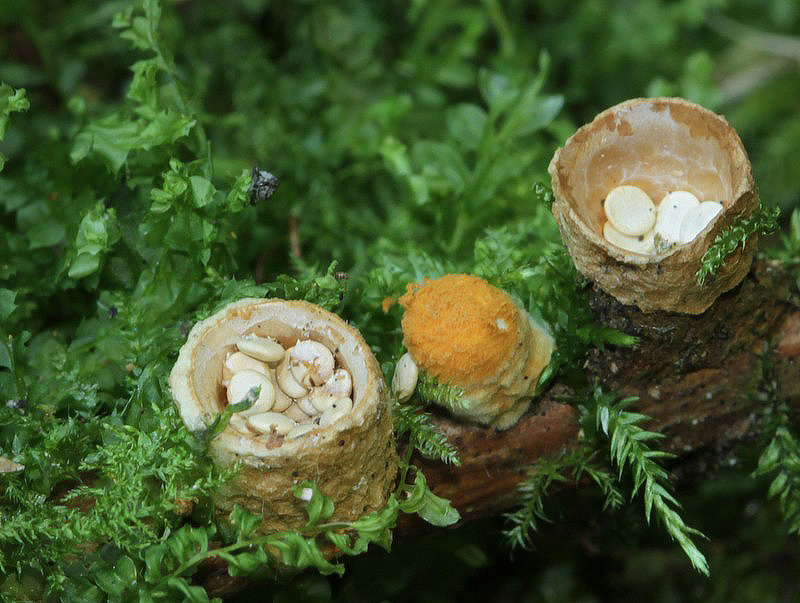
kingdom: Fungi
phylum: Basidiomycota
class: Agaricomycetes
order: Agaricales
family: Nidulariaceae
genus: Crucibulum
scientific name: Crucibulum crucibuliforme
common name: krukkesvamp
